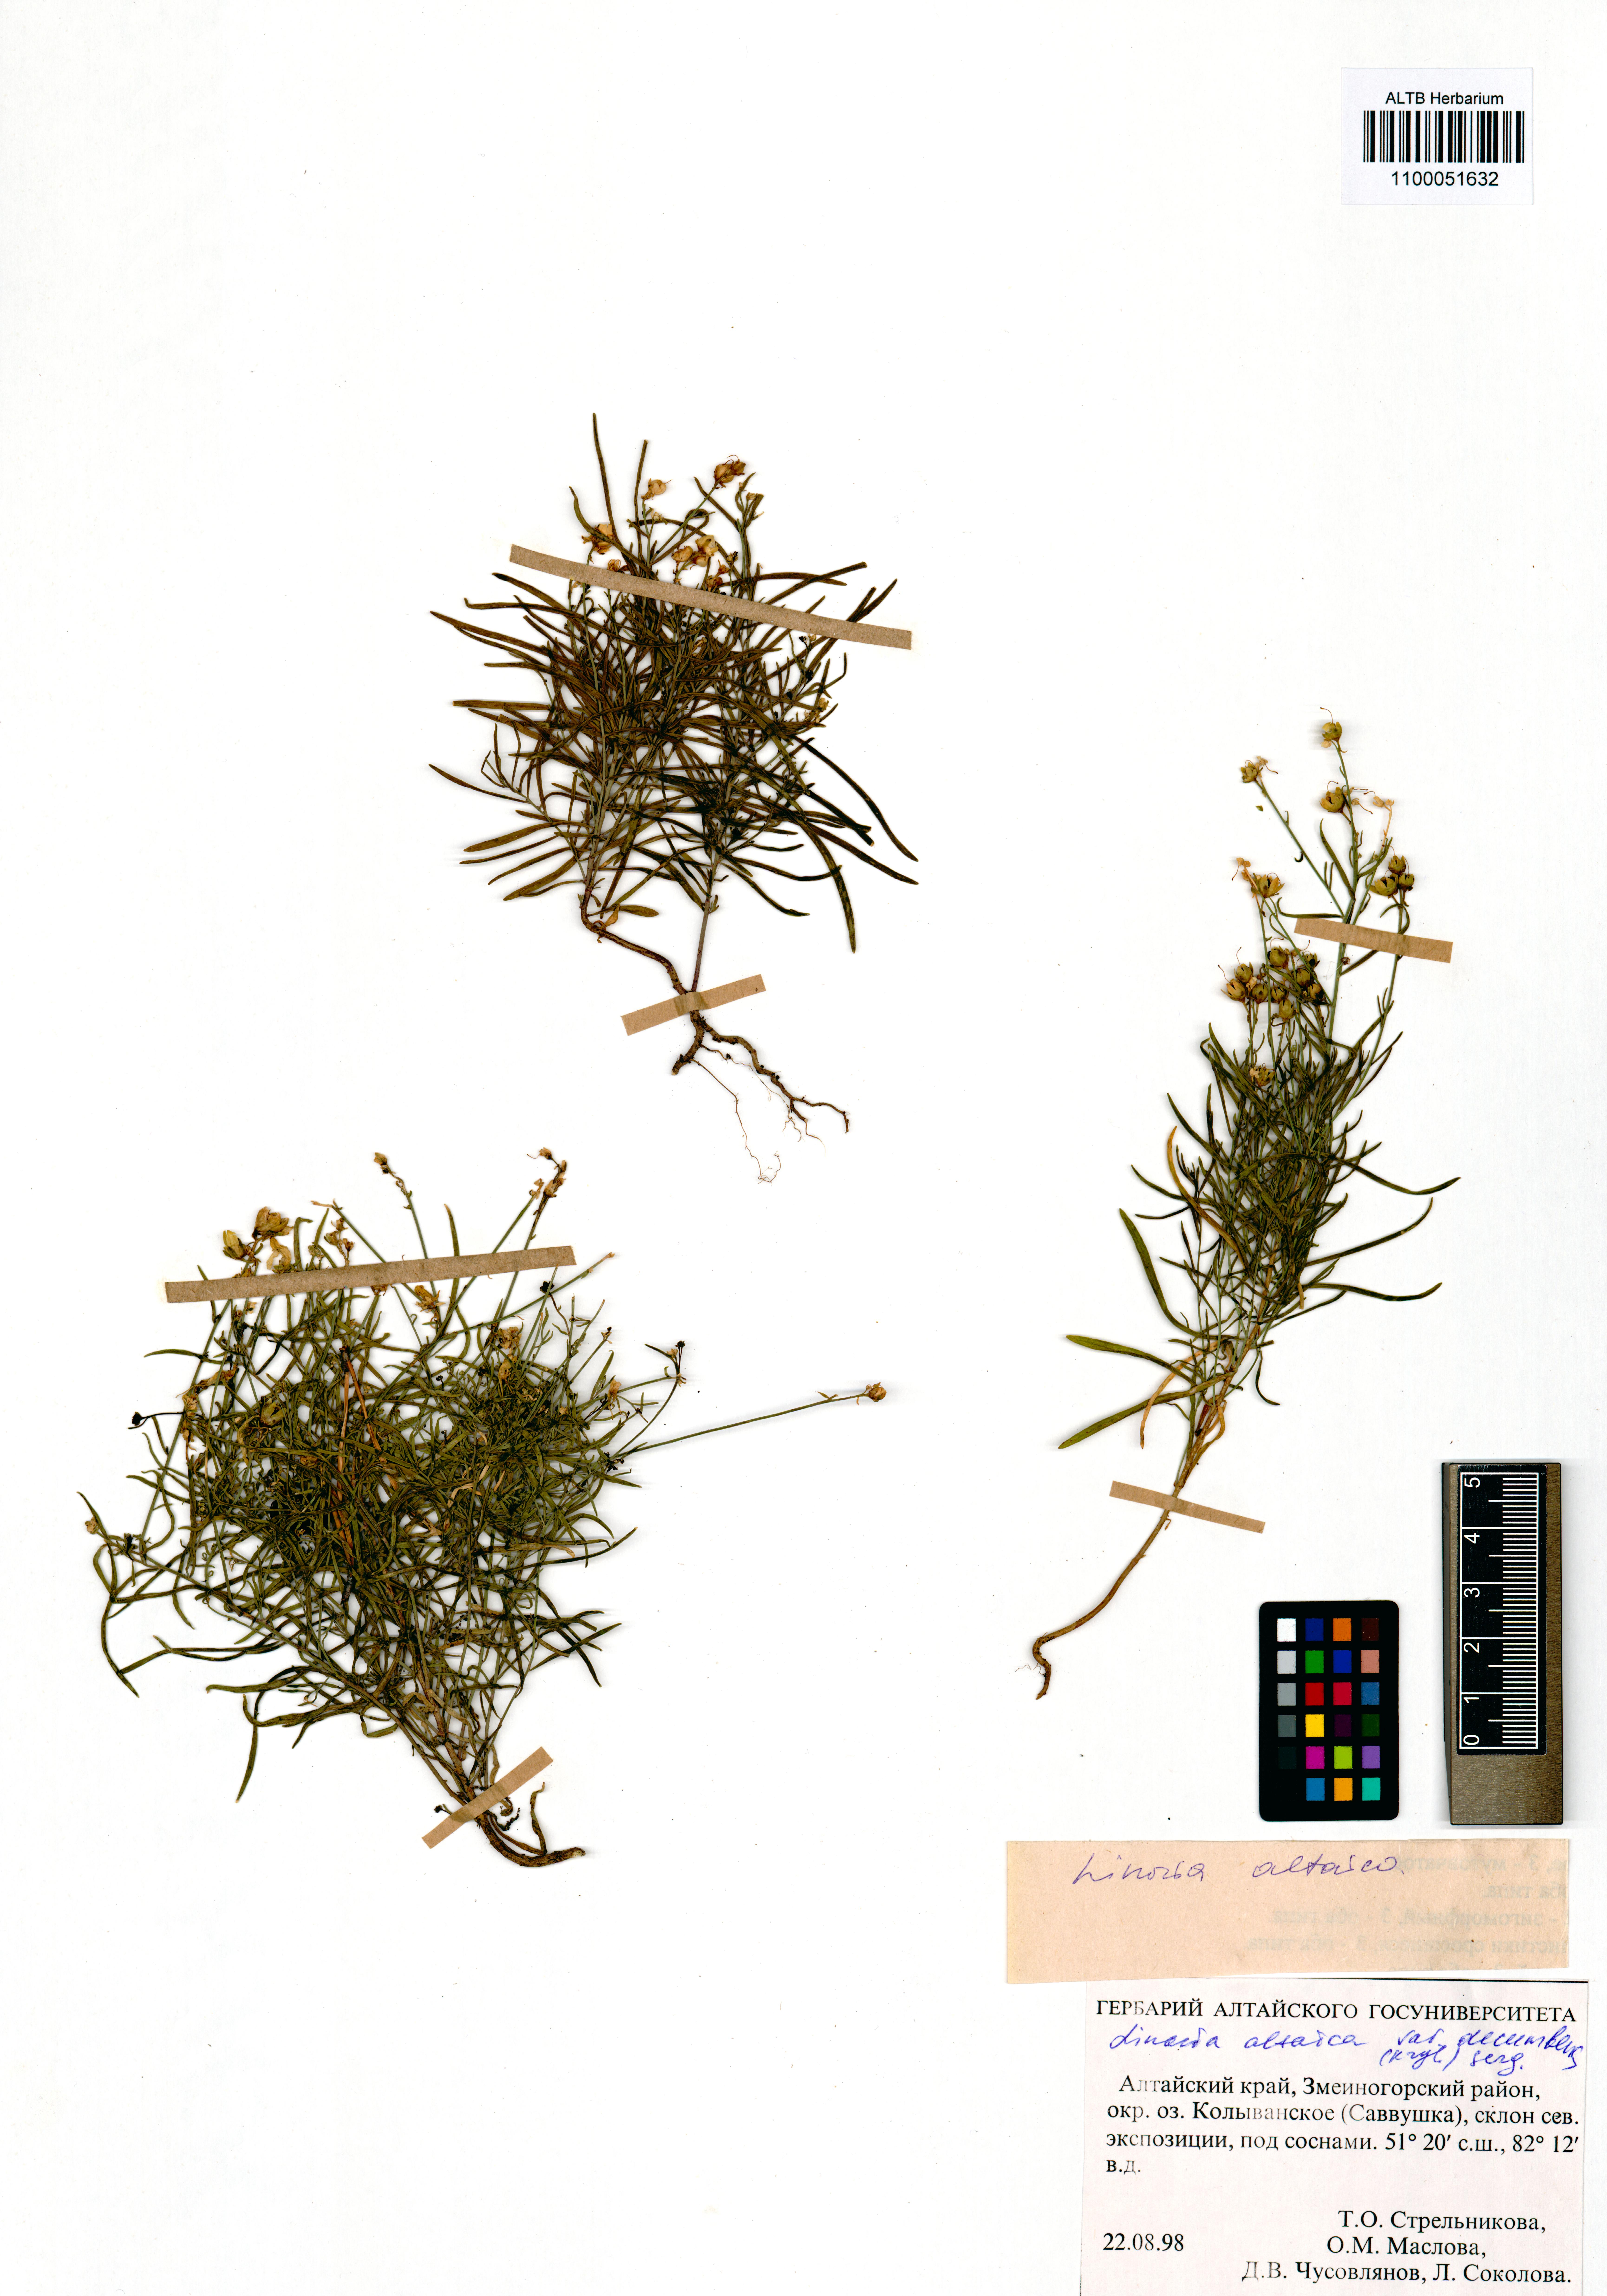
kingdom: Plantae
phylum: Tracheophyta
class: Magnoliopsida
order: Lamiales
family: Plantaginaceae
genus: Linaria
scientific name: Linaria altaica
